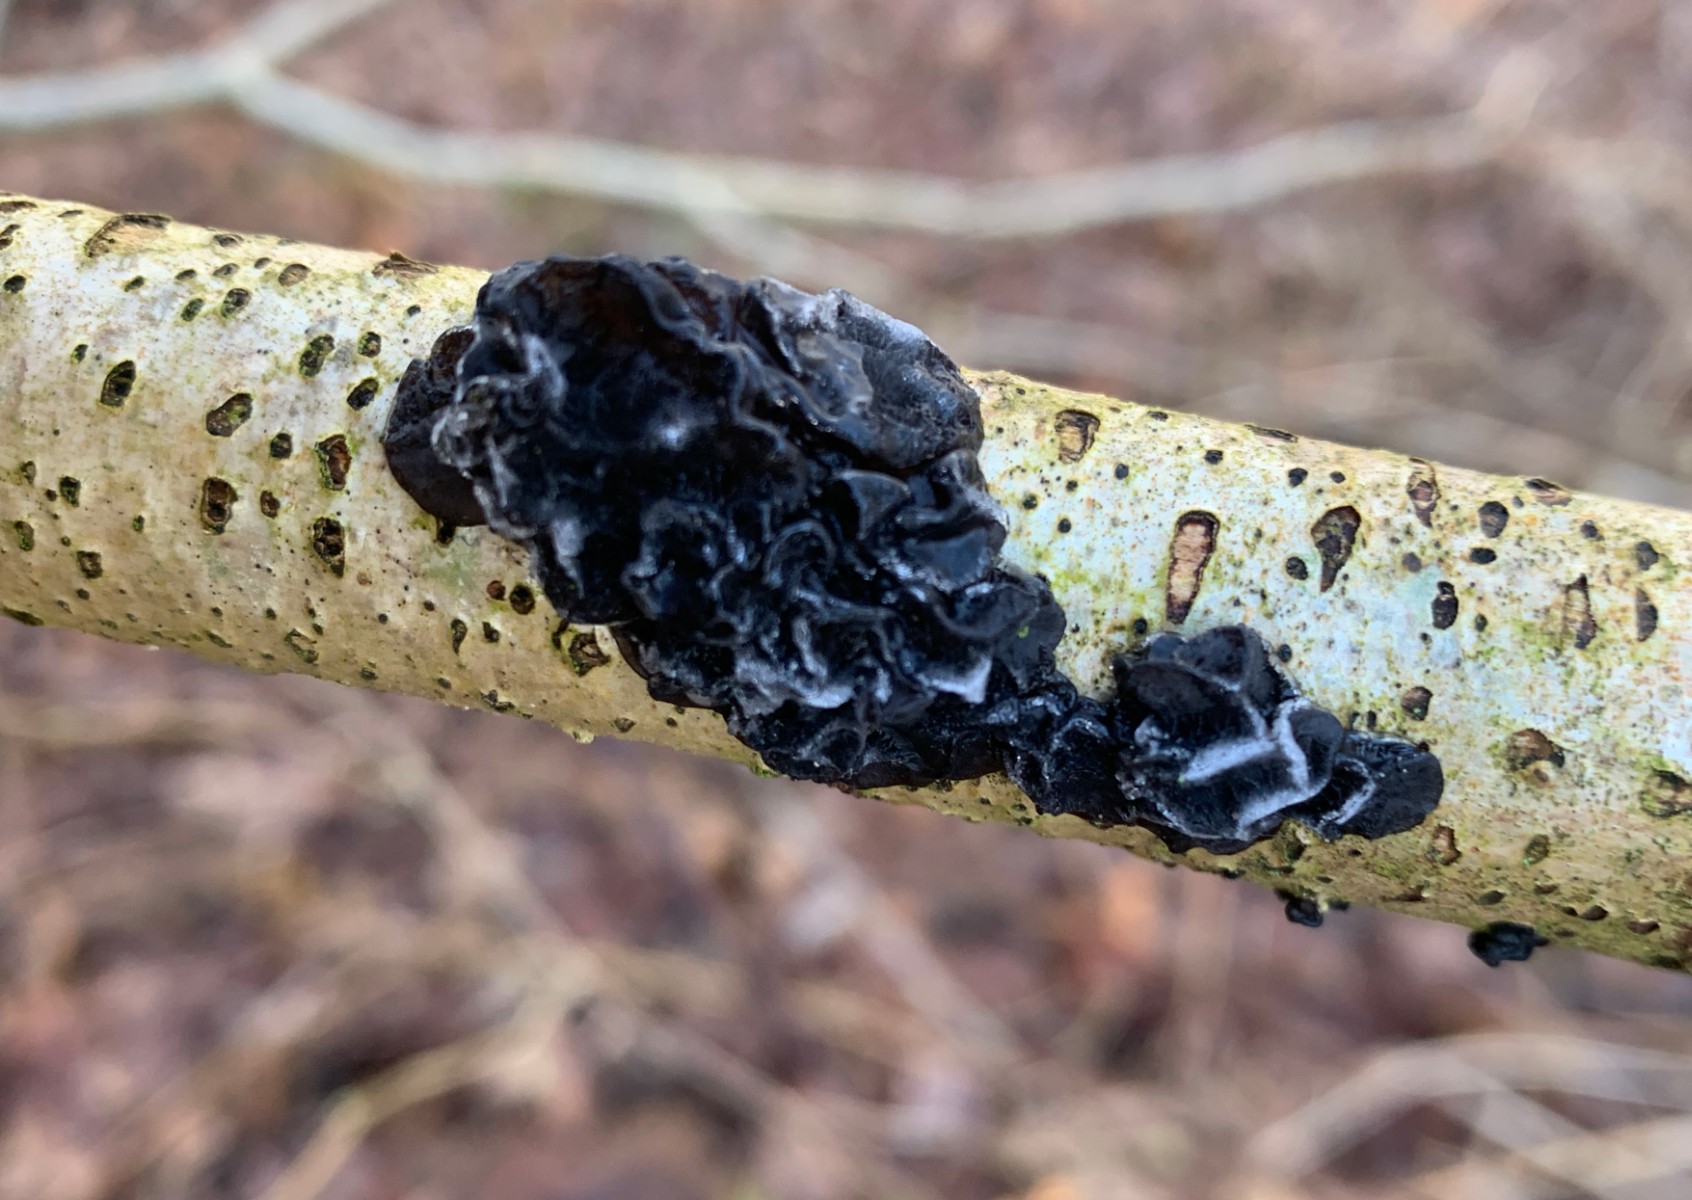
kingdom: Fungi
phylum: Basidiomycota
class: Agaricomycetes
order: Auriculariales
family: Auriculariaceae
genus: Exidia
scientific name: Exidia nigricans
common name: almindelig bævretop
